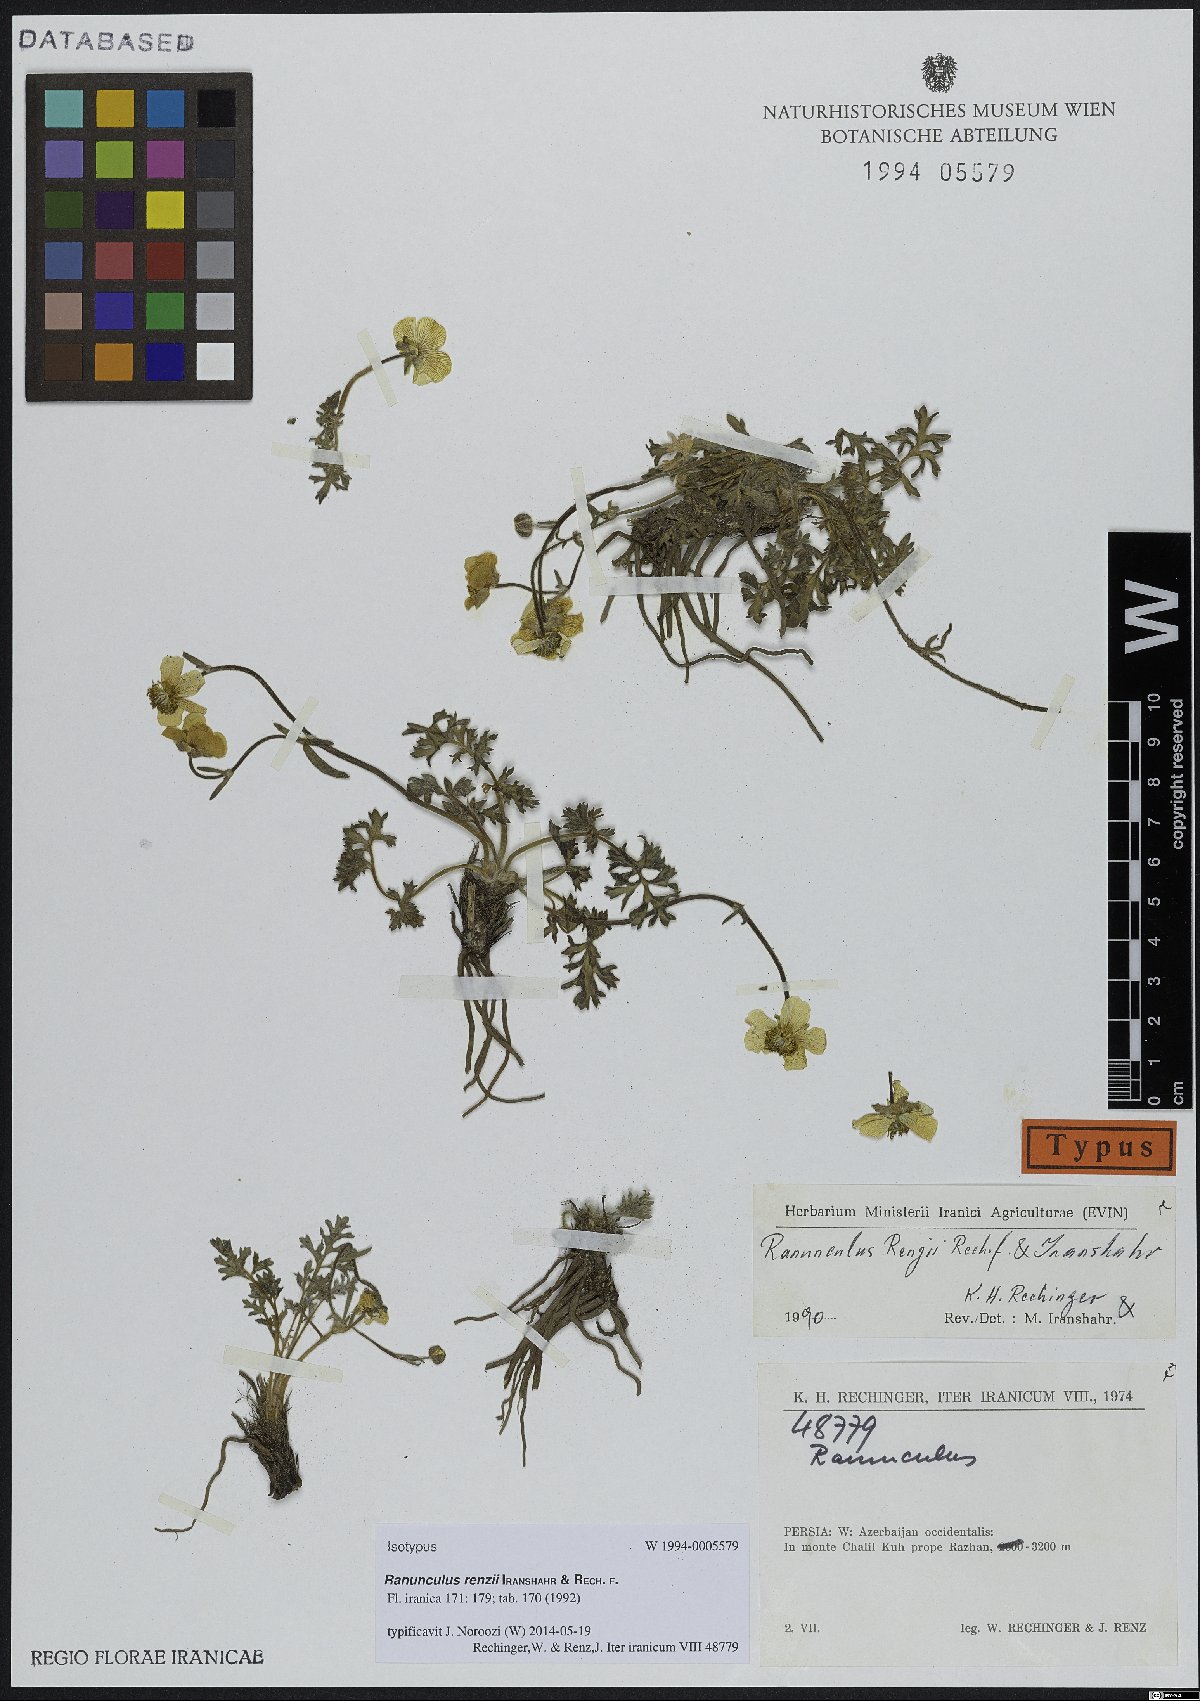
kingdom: Plantae
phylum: Tracheophyta
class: Magnoliopsida
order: Ranunculales
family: Ranunculaceae
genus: Ranunculus
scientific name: Ranunculus renzii
